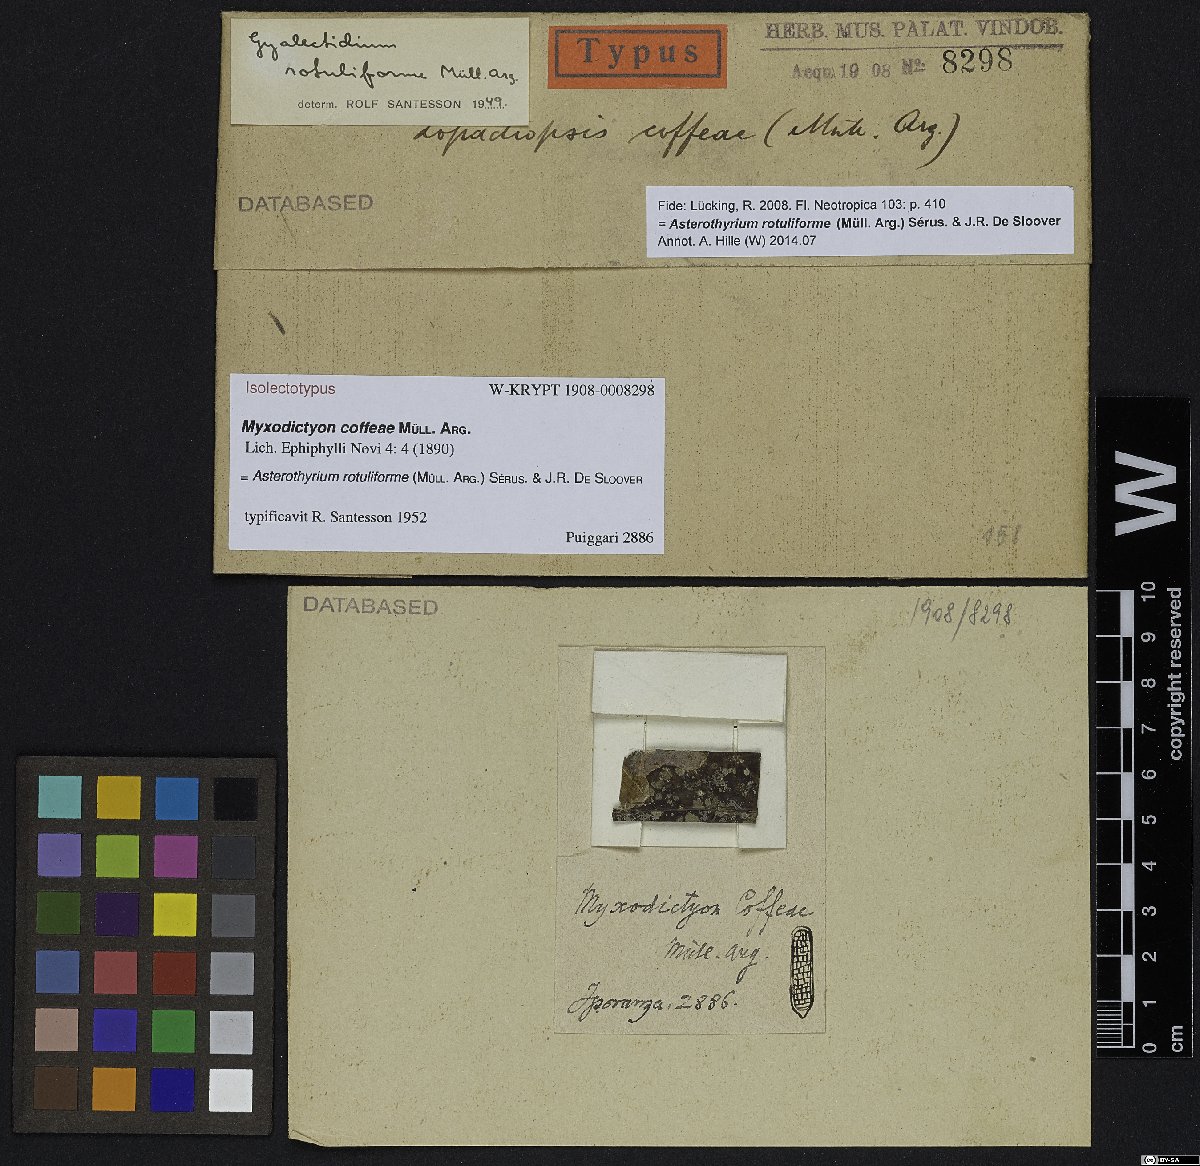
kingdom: Fungi
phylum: Ascomycota
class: Lecanoromycetes
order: Teloschistales
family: Brigantiaeaceae
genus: Brigantiaea
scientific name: Brigantiaea
